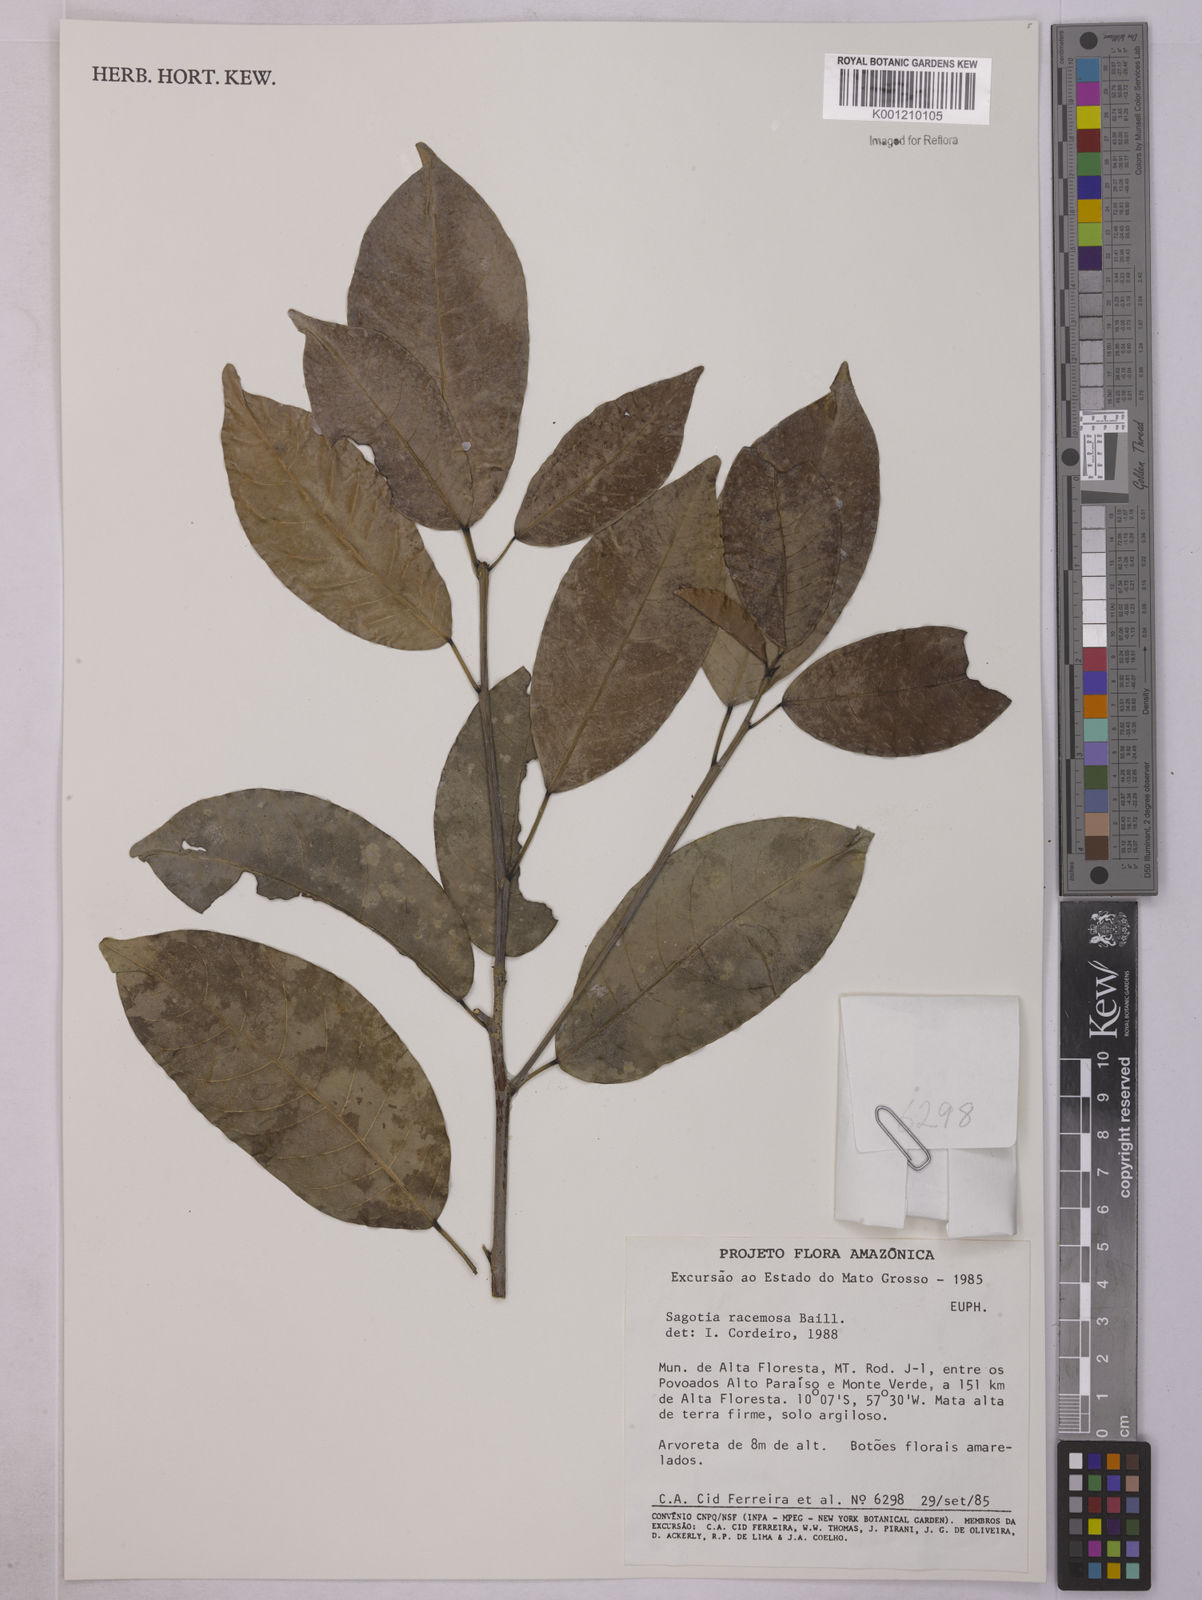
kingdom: Plantae
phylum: Tracheophyta
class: Magnoliopsida
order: Malpighiales
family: Euphorbiaceae
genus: Sagotia
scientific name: Sagotia racemosa
